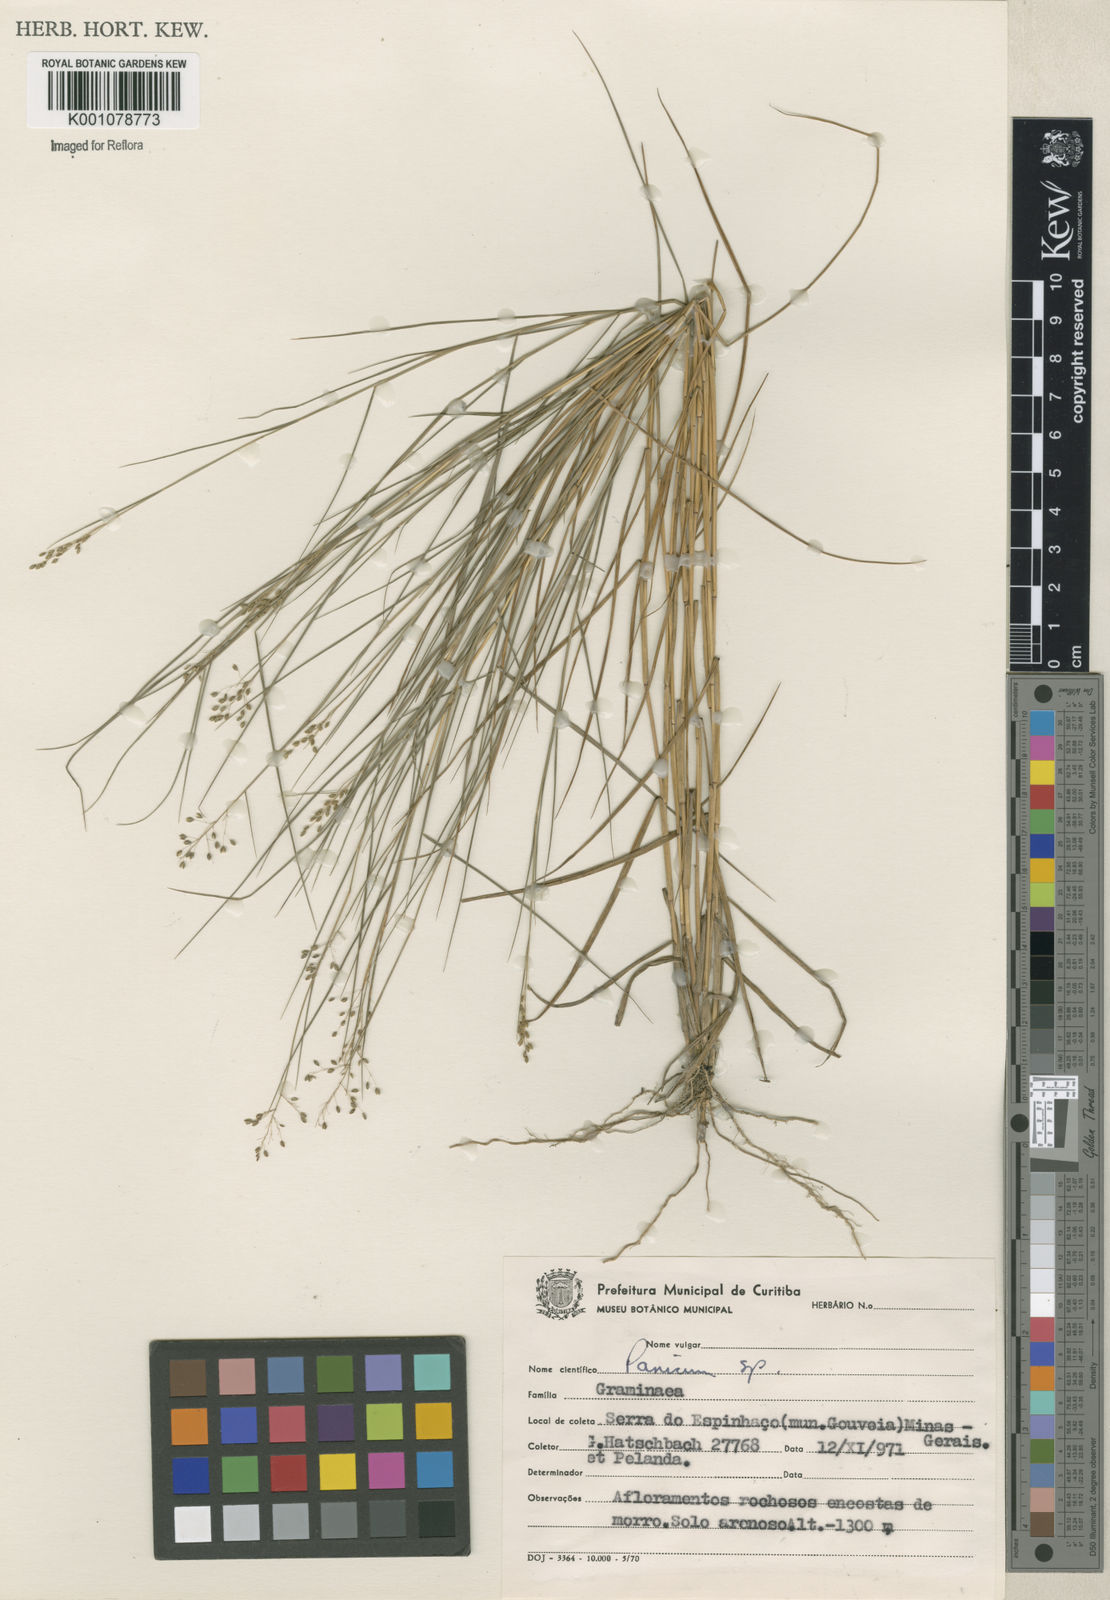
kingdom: Plantae
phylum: Tracheophyta
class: Liliopsida
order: Poales
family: Poaceae
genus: Panicum
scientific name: Panicum
